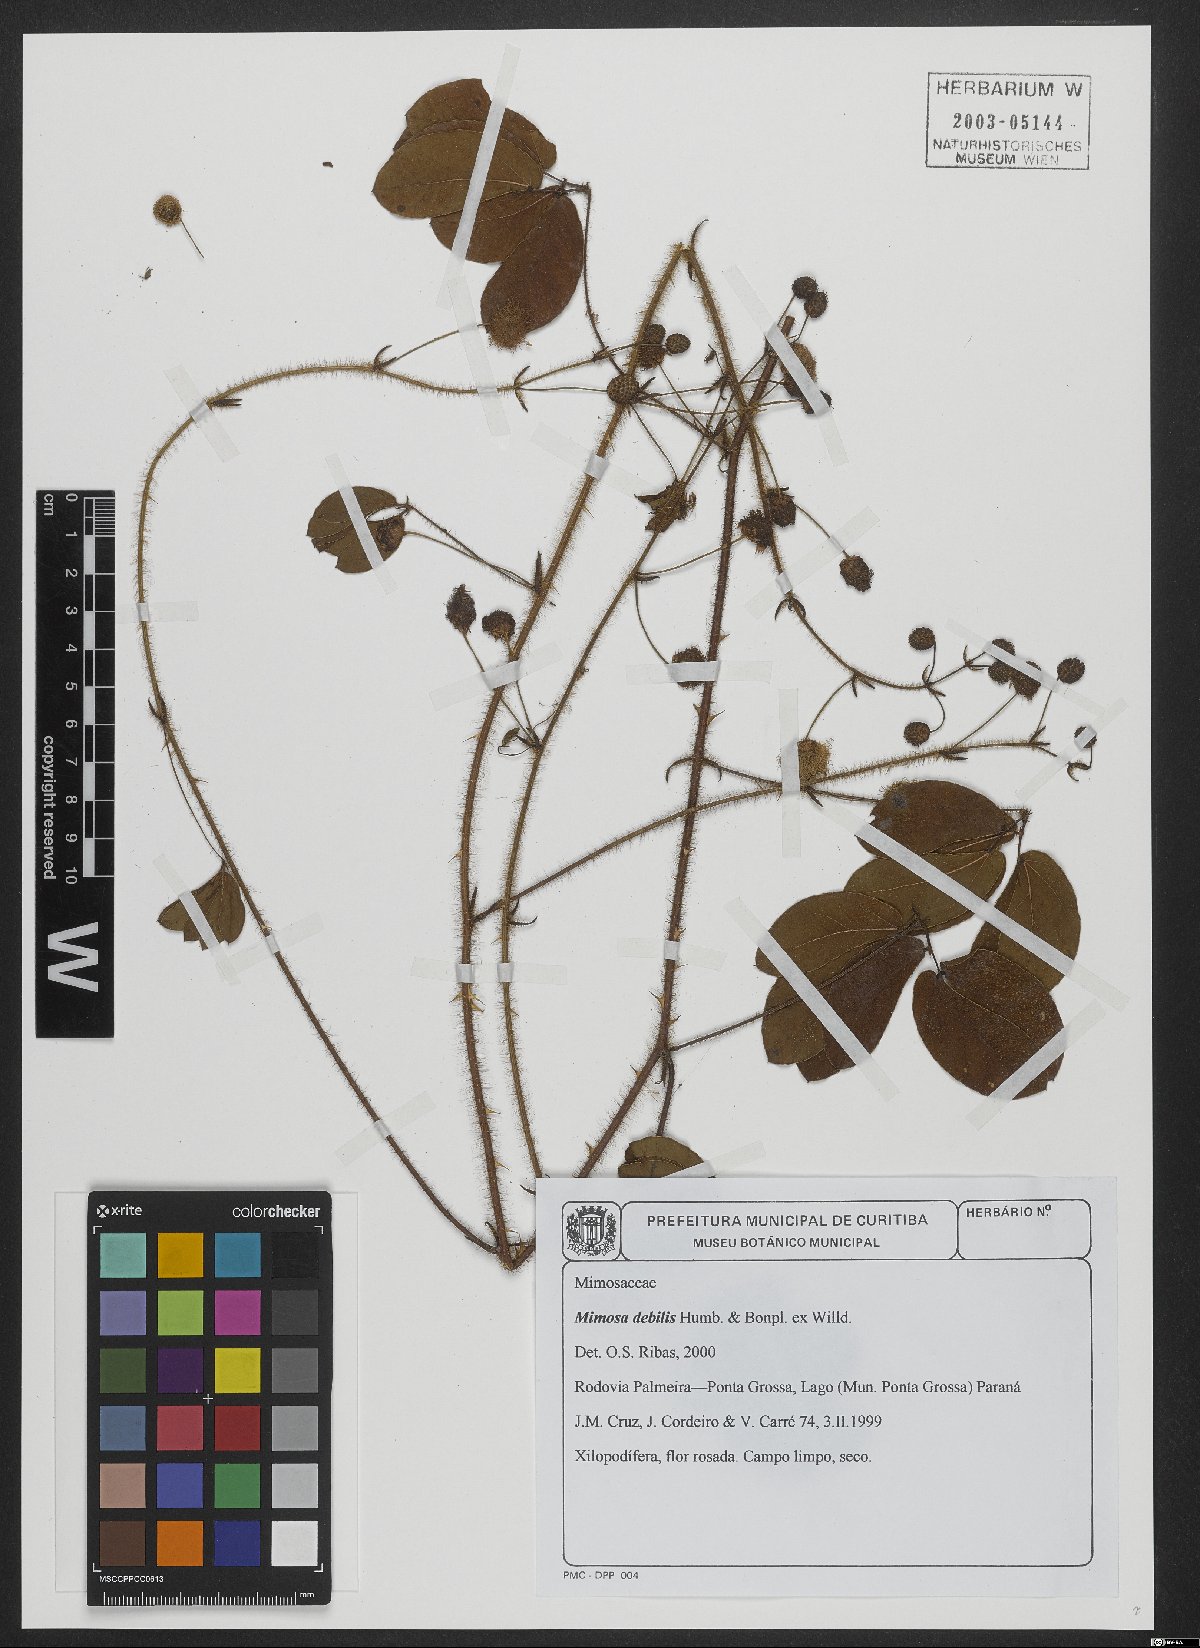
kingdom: Plantae
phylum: Tracheophyta
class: Magnoliopsida
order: Fabales
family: Fabaceae
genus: Mimosa
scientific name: Mimosa debilis
